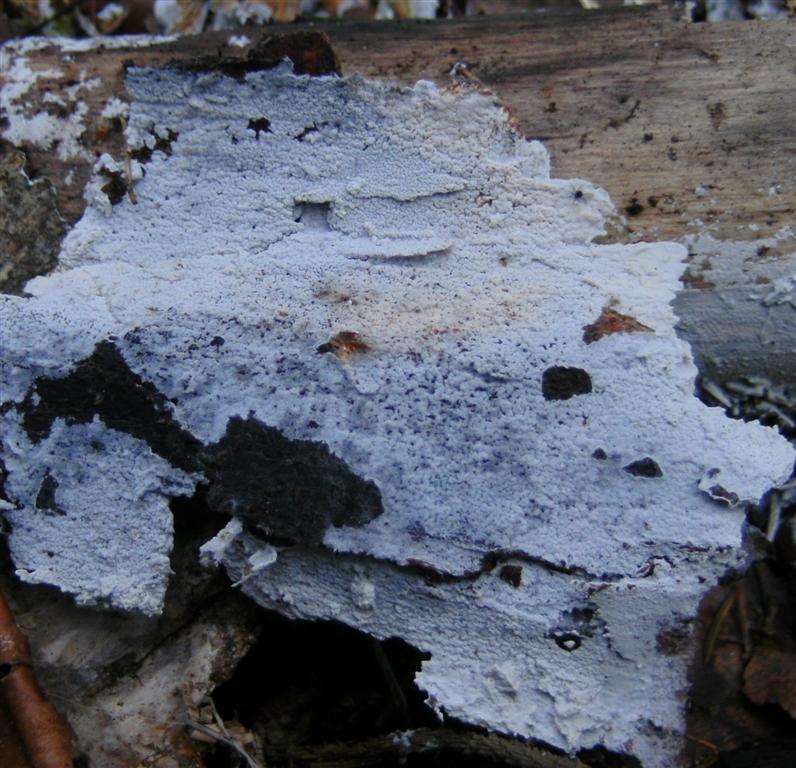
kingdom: Fungi
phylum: Basidiomycota
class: Agaricomycetes
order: Atheliales
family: Atheliaceae
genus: Athelia
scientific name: Athelia epiphylla
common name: almindelig barkhinde
